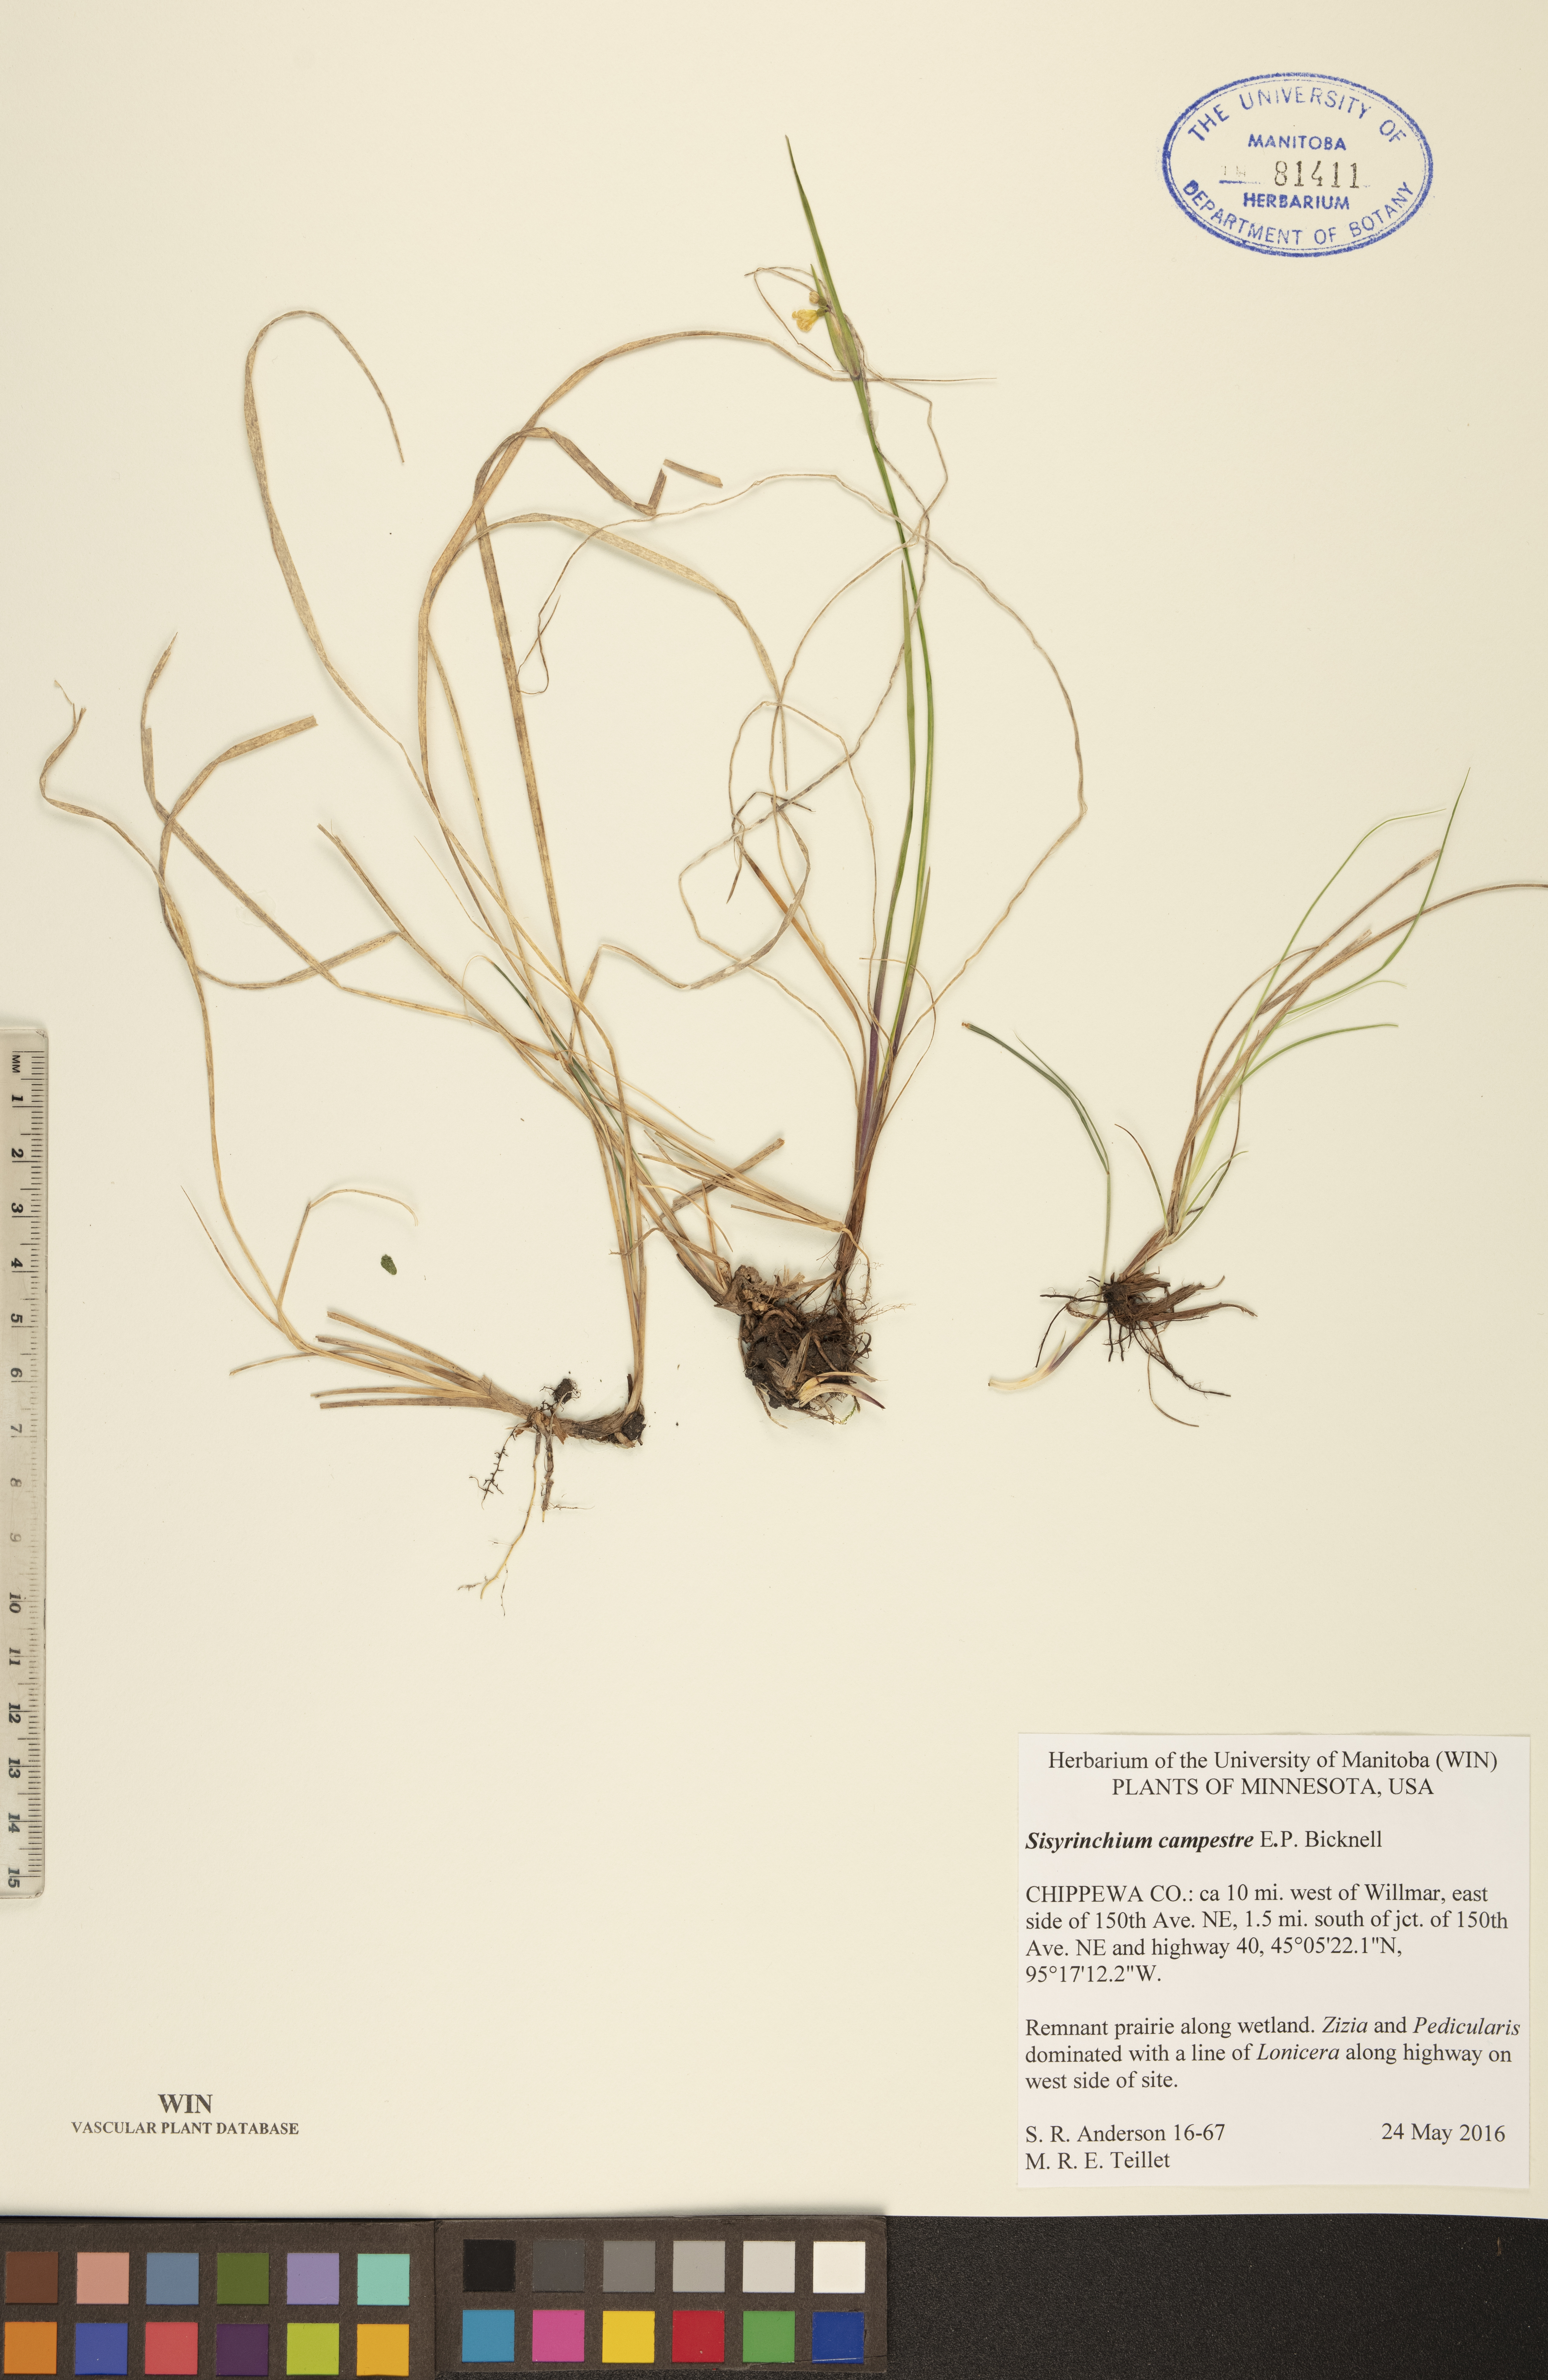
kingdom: Plantae
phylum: Tracheophyta
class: Liliopsida
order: Asparagales
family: Iridaceae
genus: Sisyrinchium
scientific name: Sisyrinchium campestre
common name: Prairie blue-eyed-grass
